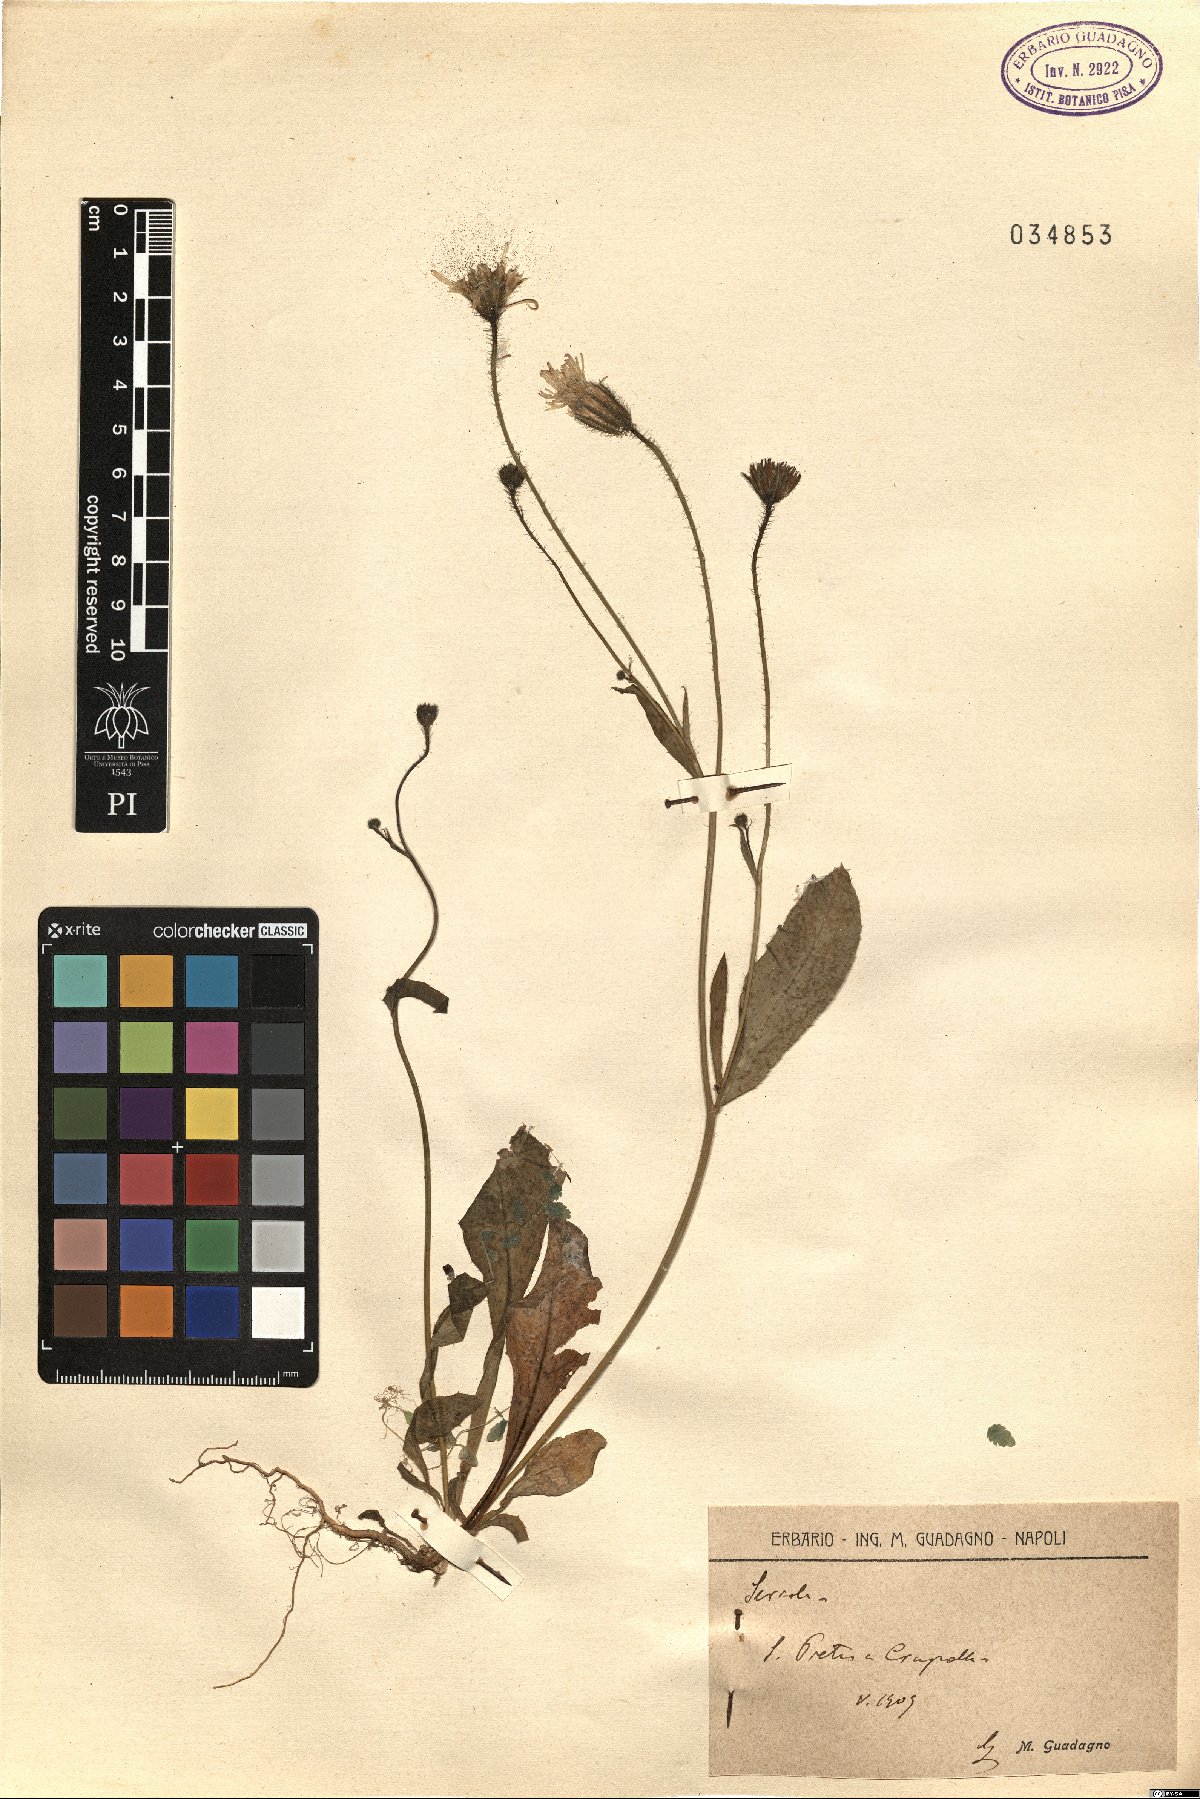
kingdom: Animalia
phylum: Chordata
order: Perciformes
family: Carangidae
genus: Seriola
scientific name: Seriola
